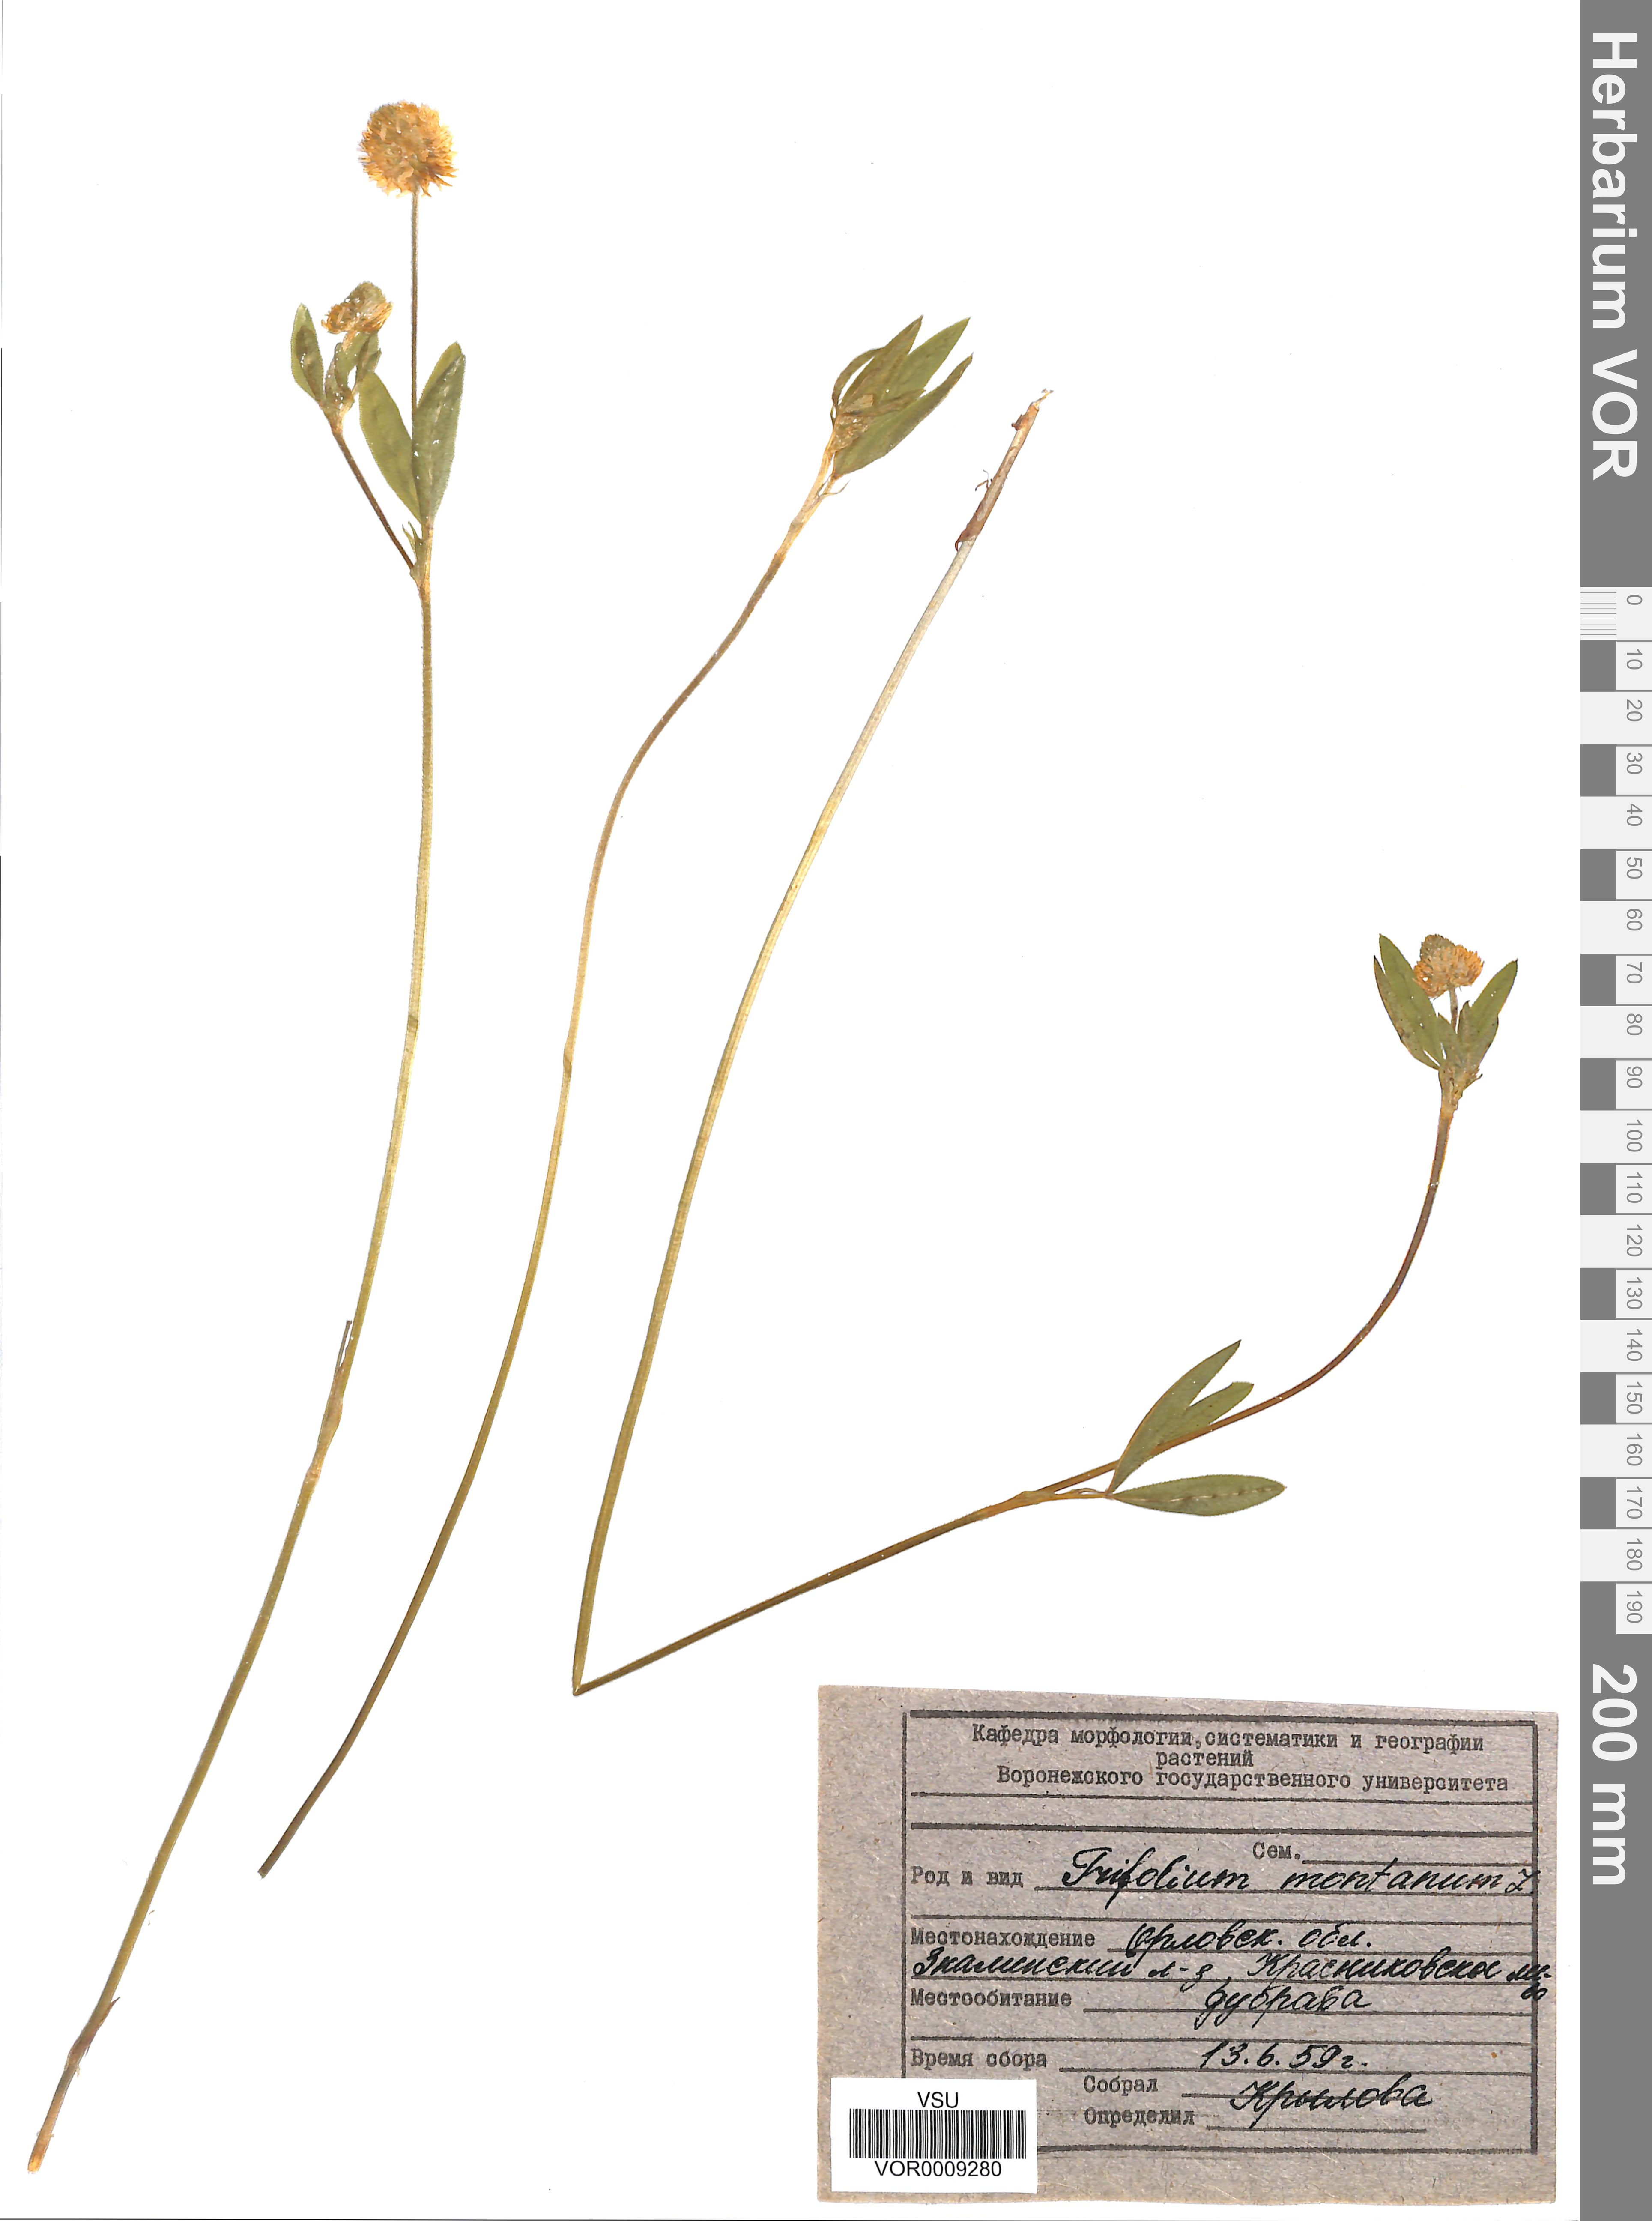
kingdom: Plantae
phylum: Tracheophyta
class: Magnoliopsida
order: Fabales
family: Fabaceae
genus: Trifolium
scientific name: Trifolium montanum
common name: Mountain clover
